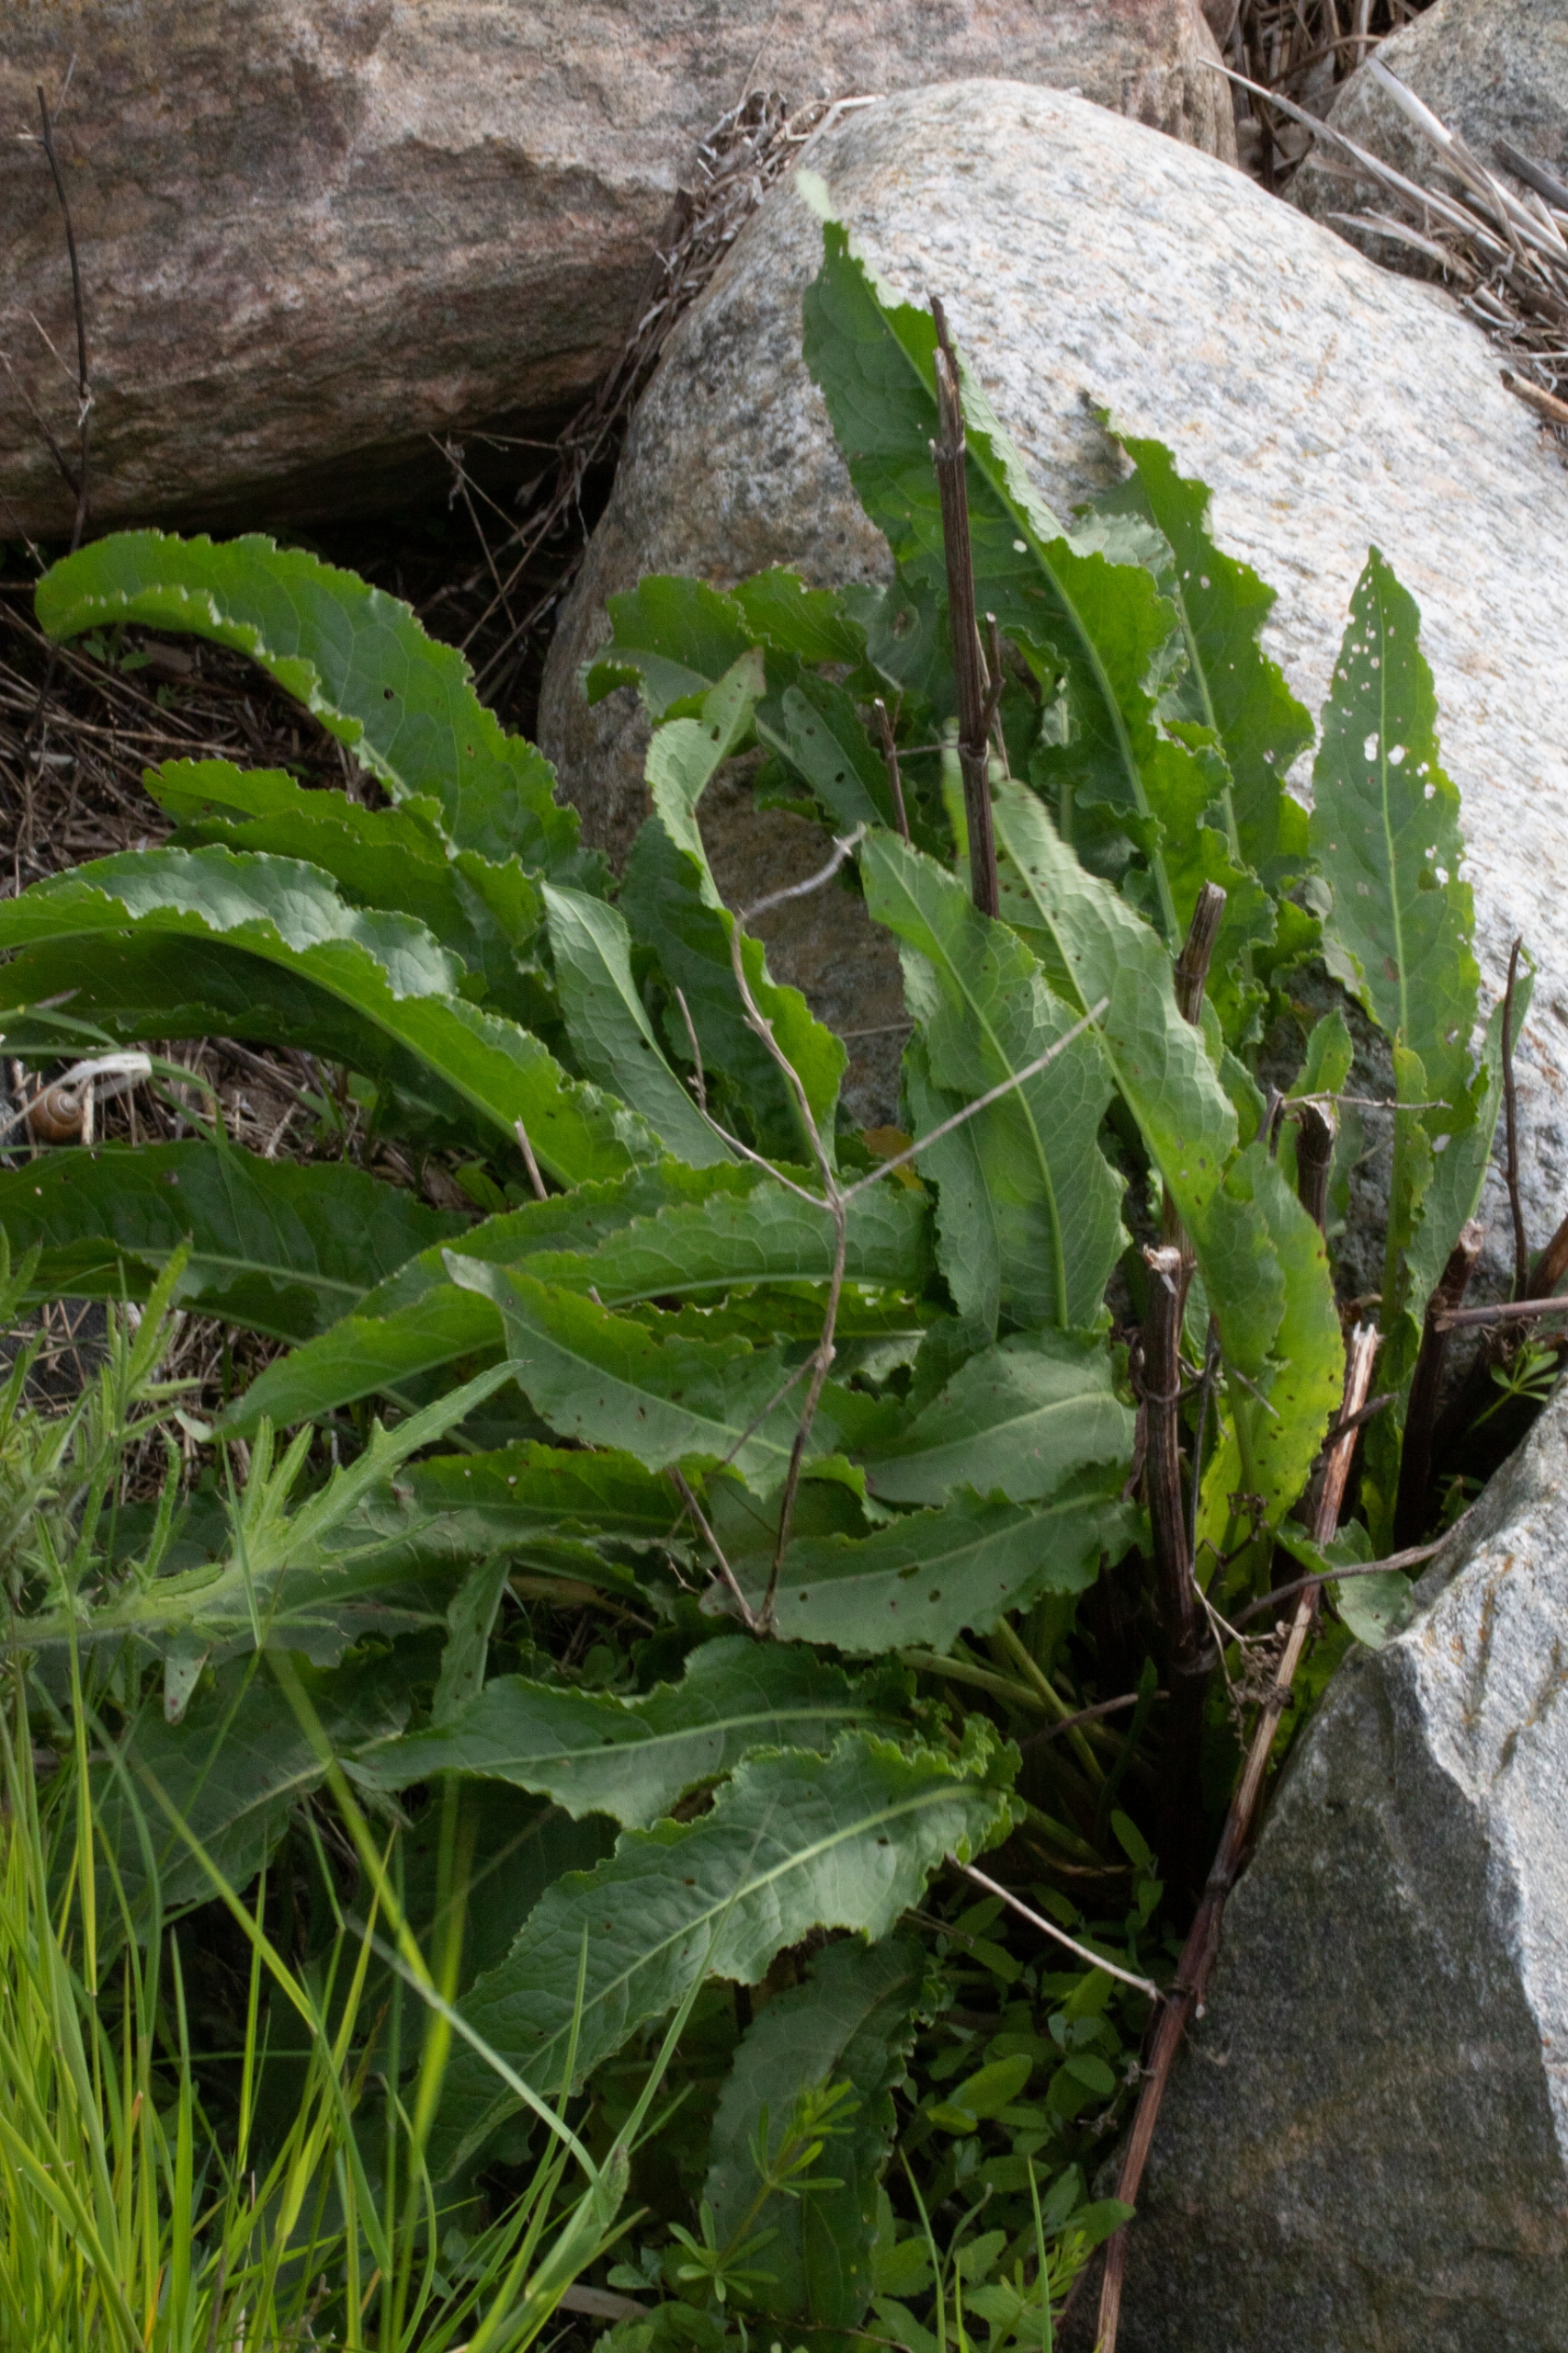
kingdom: Plantae
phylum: Tracheophyta
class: Magnoliopsida
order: Brassicales
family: Brassicaceae
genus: Armoracia
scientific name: Armoracia rusticana
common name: Peberrod
